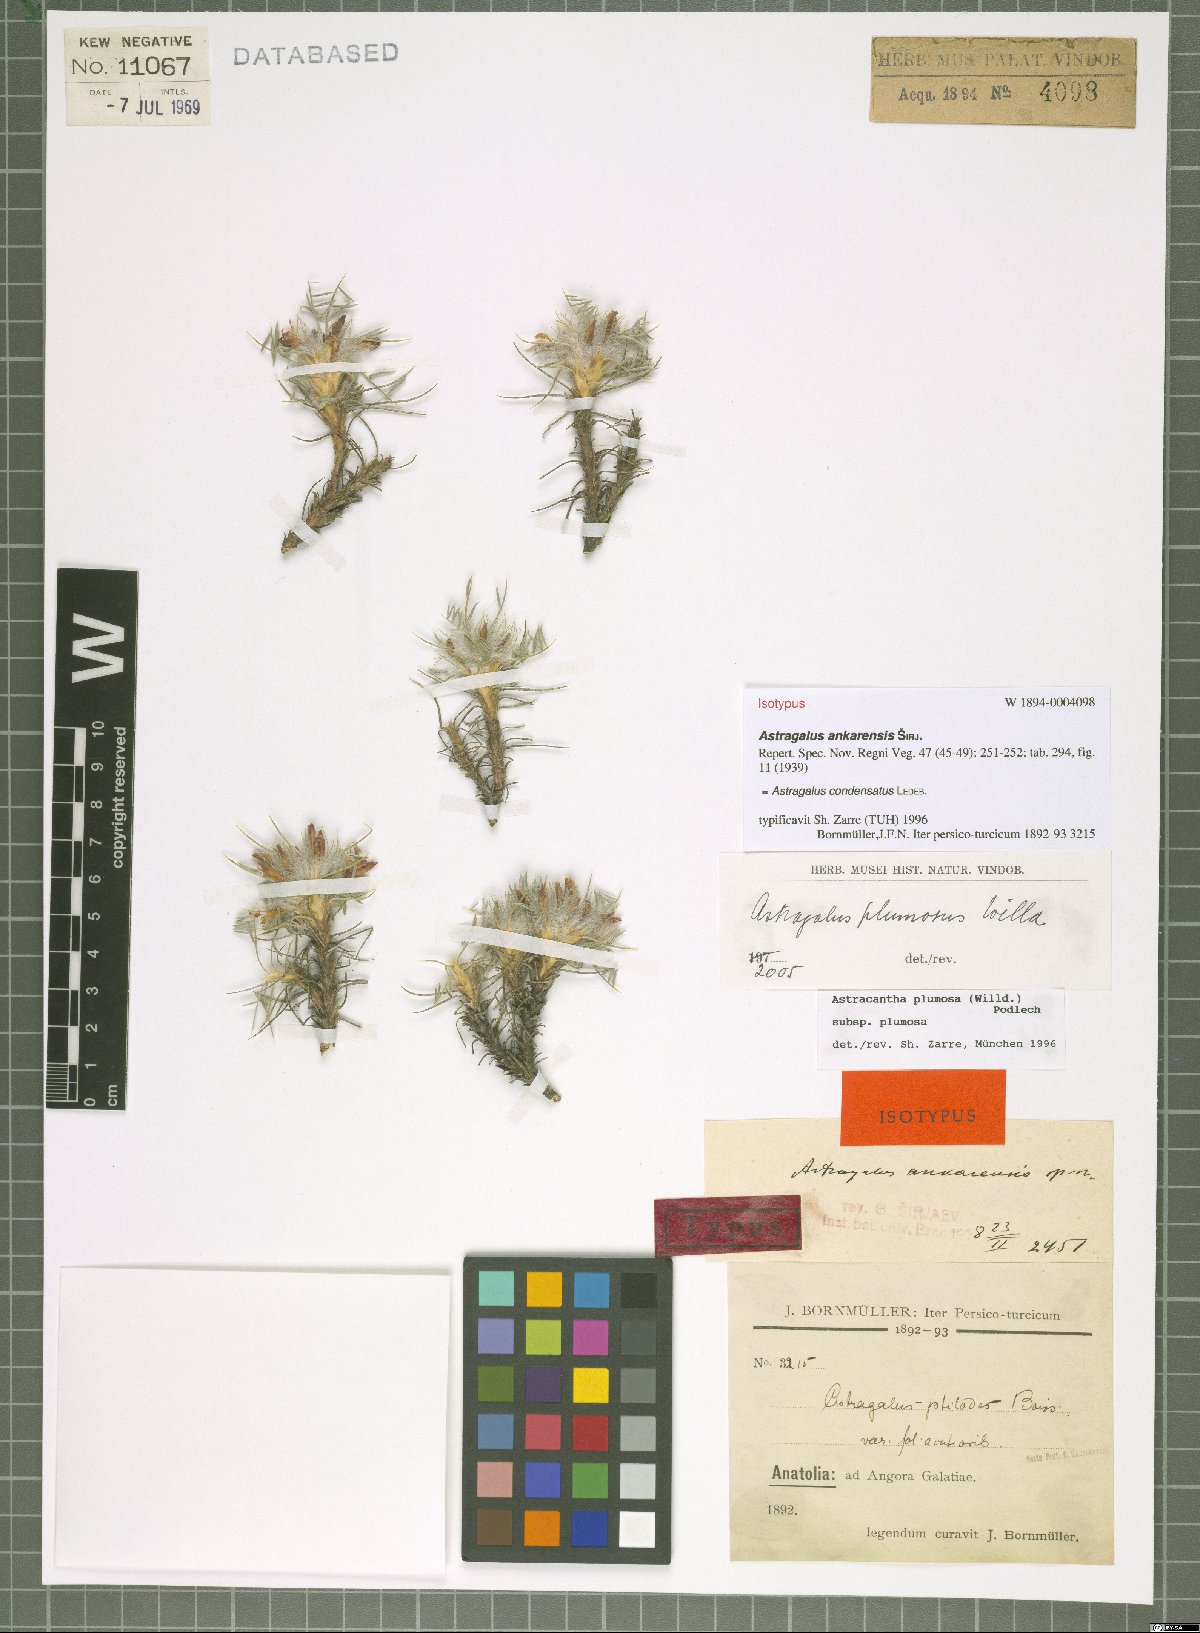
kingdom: Plantae
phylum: Tracheophyta
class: Magnoliopsida
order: Fabales
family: Fabaceae
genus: Astragalus
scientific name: Astragalus condensatus
